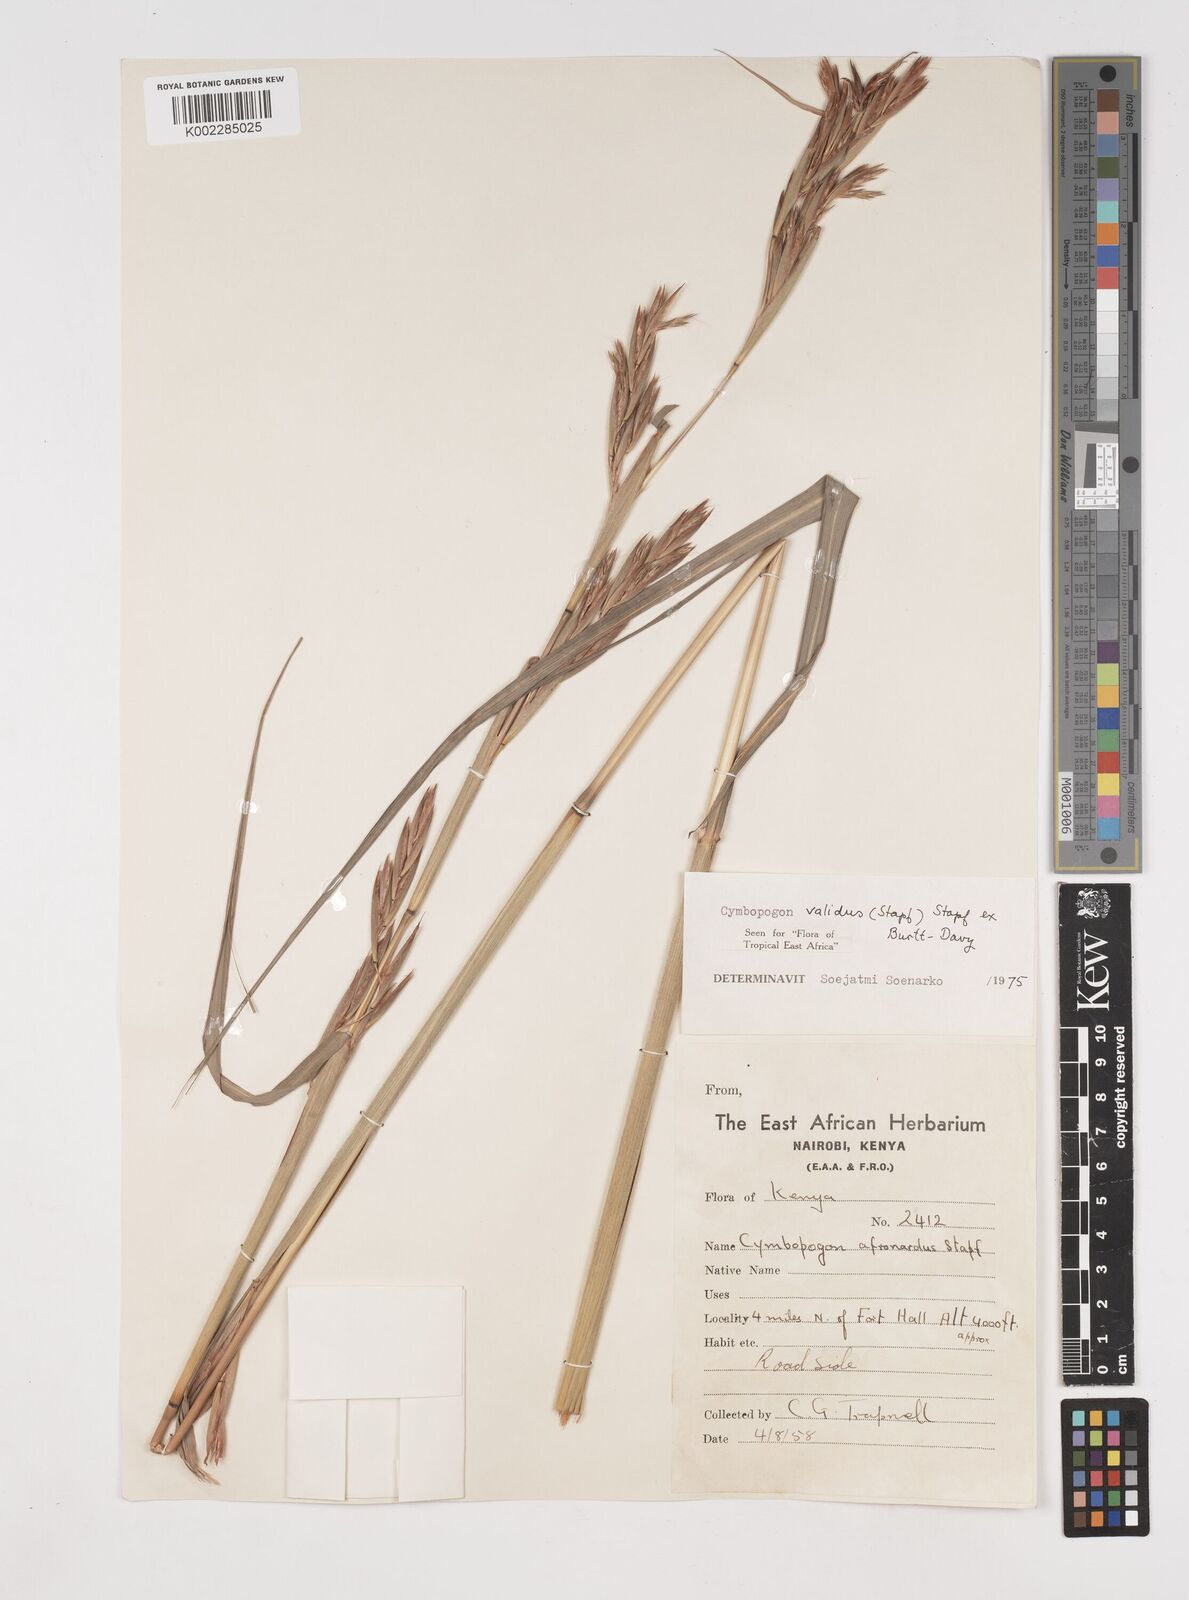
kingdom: Plantae
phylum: Tracheophyta
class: Liliopsida
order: Poales
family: Poaceae
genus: Cymbopogon
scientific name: Cymbopogon
